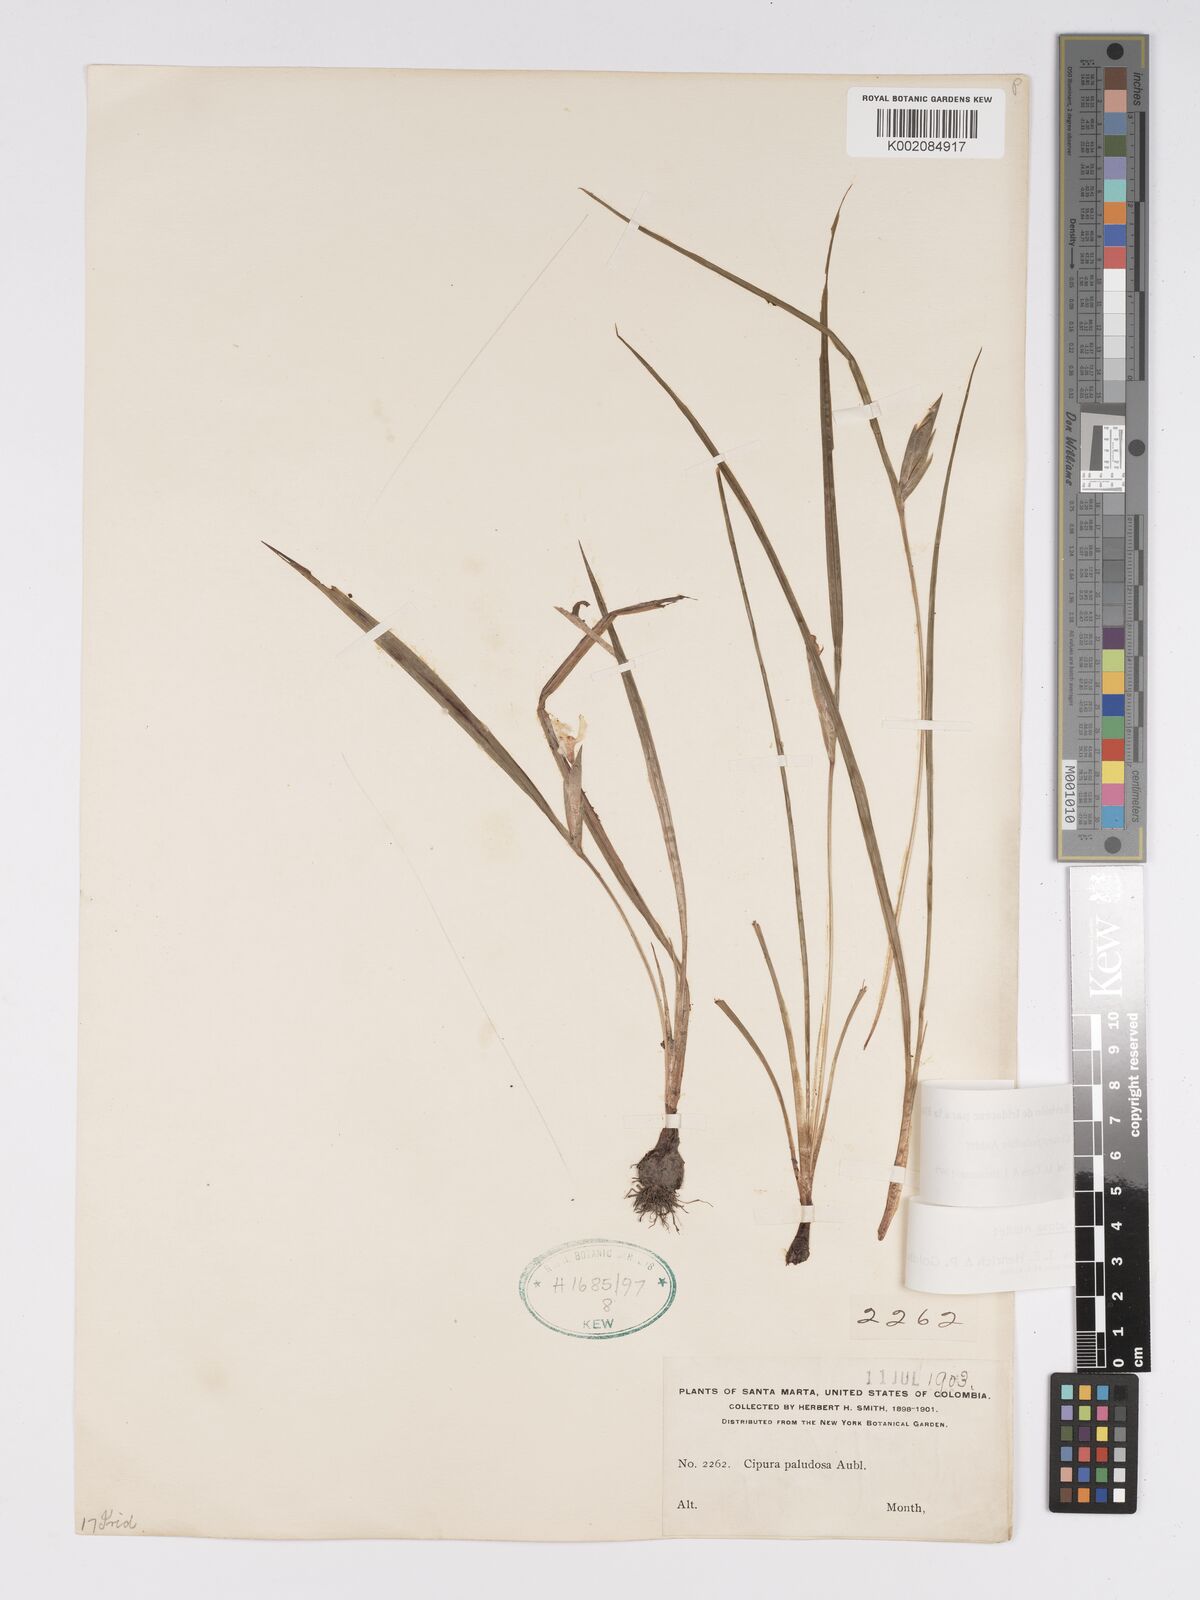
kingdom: Plantae
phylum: Tracheophyta
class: Liliopsida
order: Asparagales
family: Iridaceae
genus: Cipura
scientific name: Cipura paludosa
